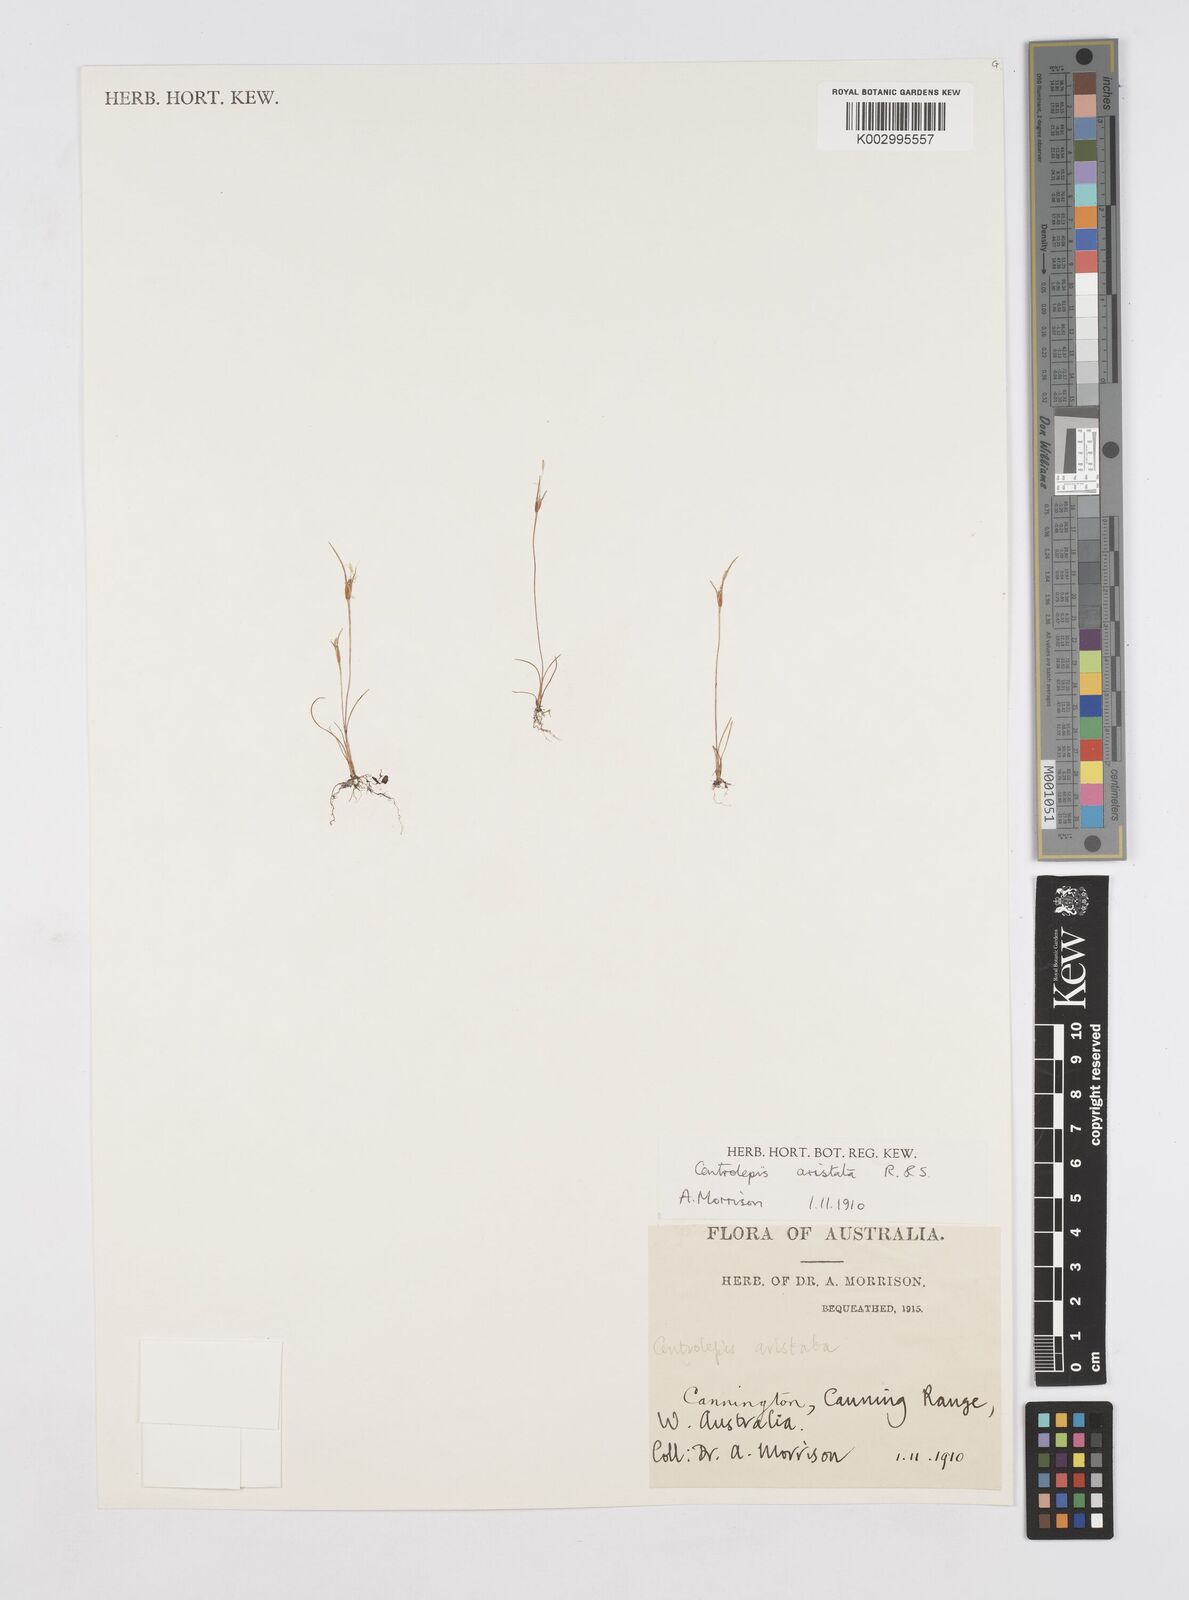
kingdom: Plantae
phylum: Tracheophyta
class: Liliopsida
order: Poales
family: Restionaceae
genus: Centrolepis
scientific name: Centrolepis aristata
